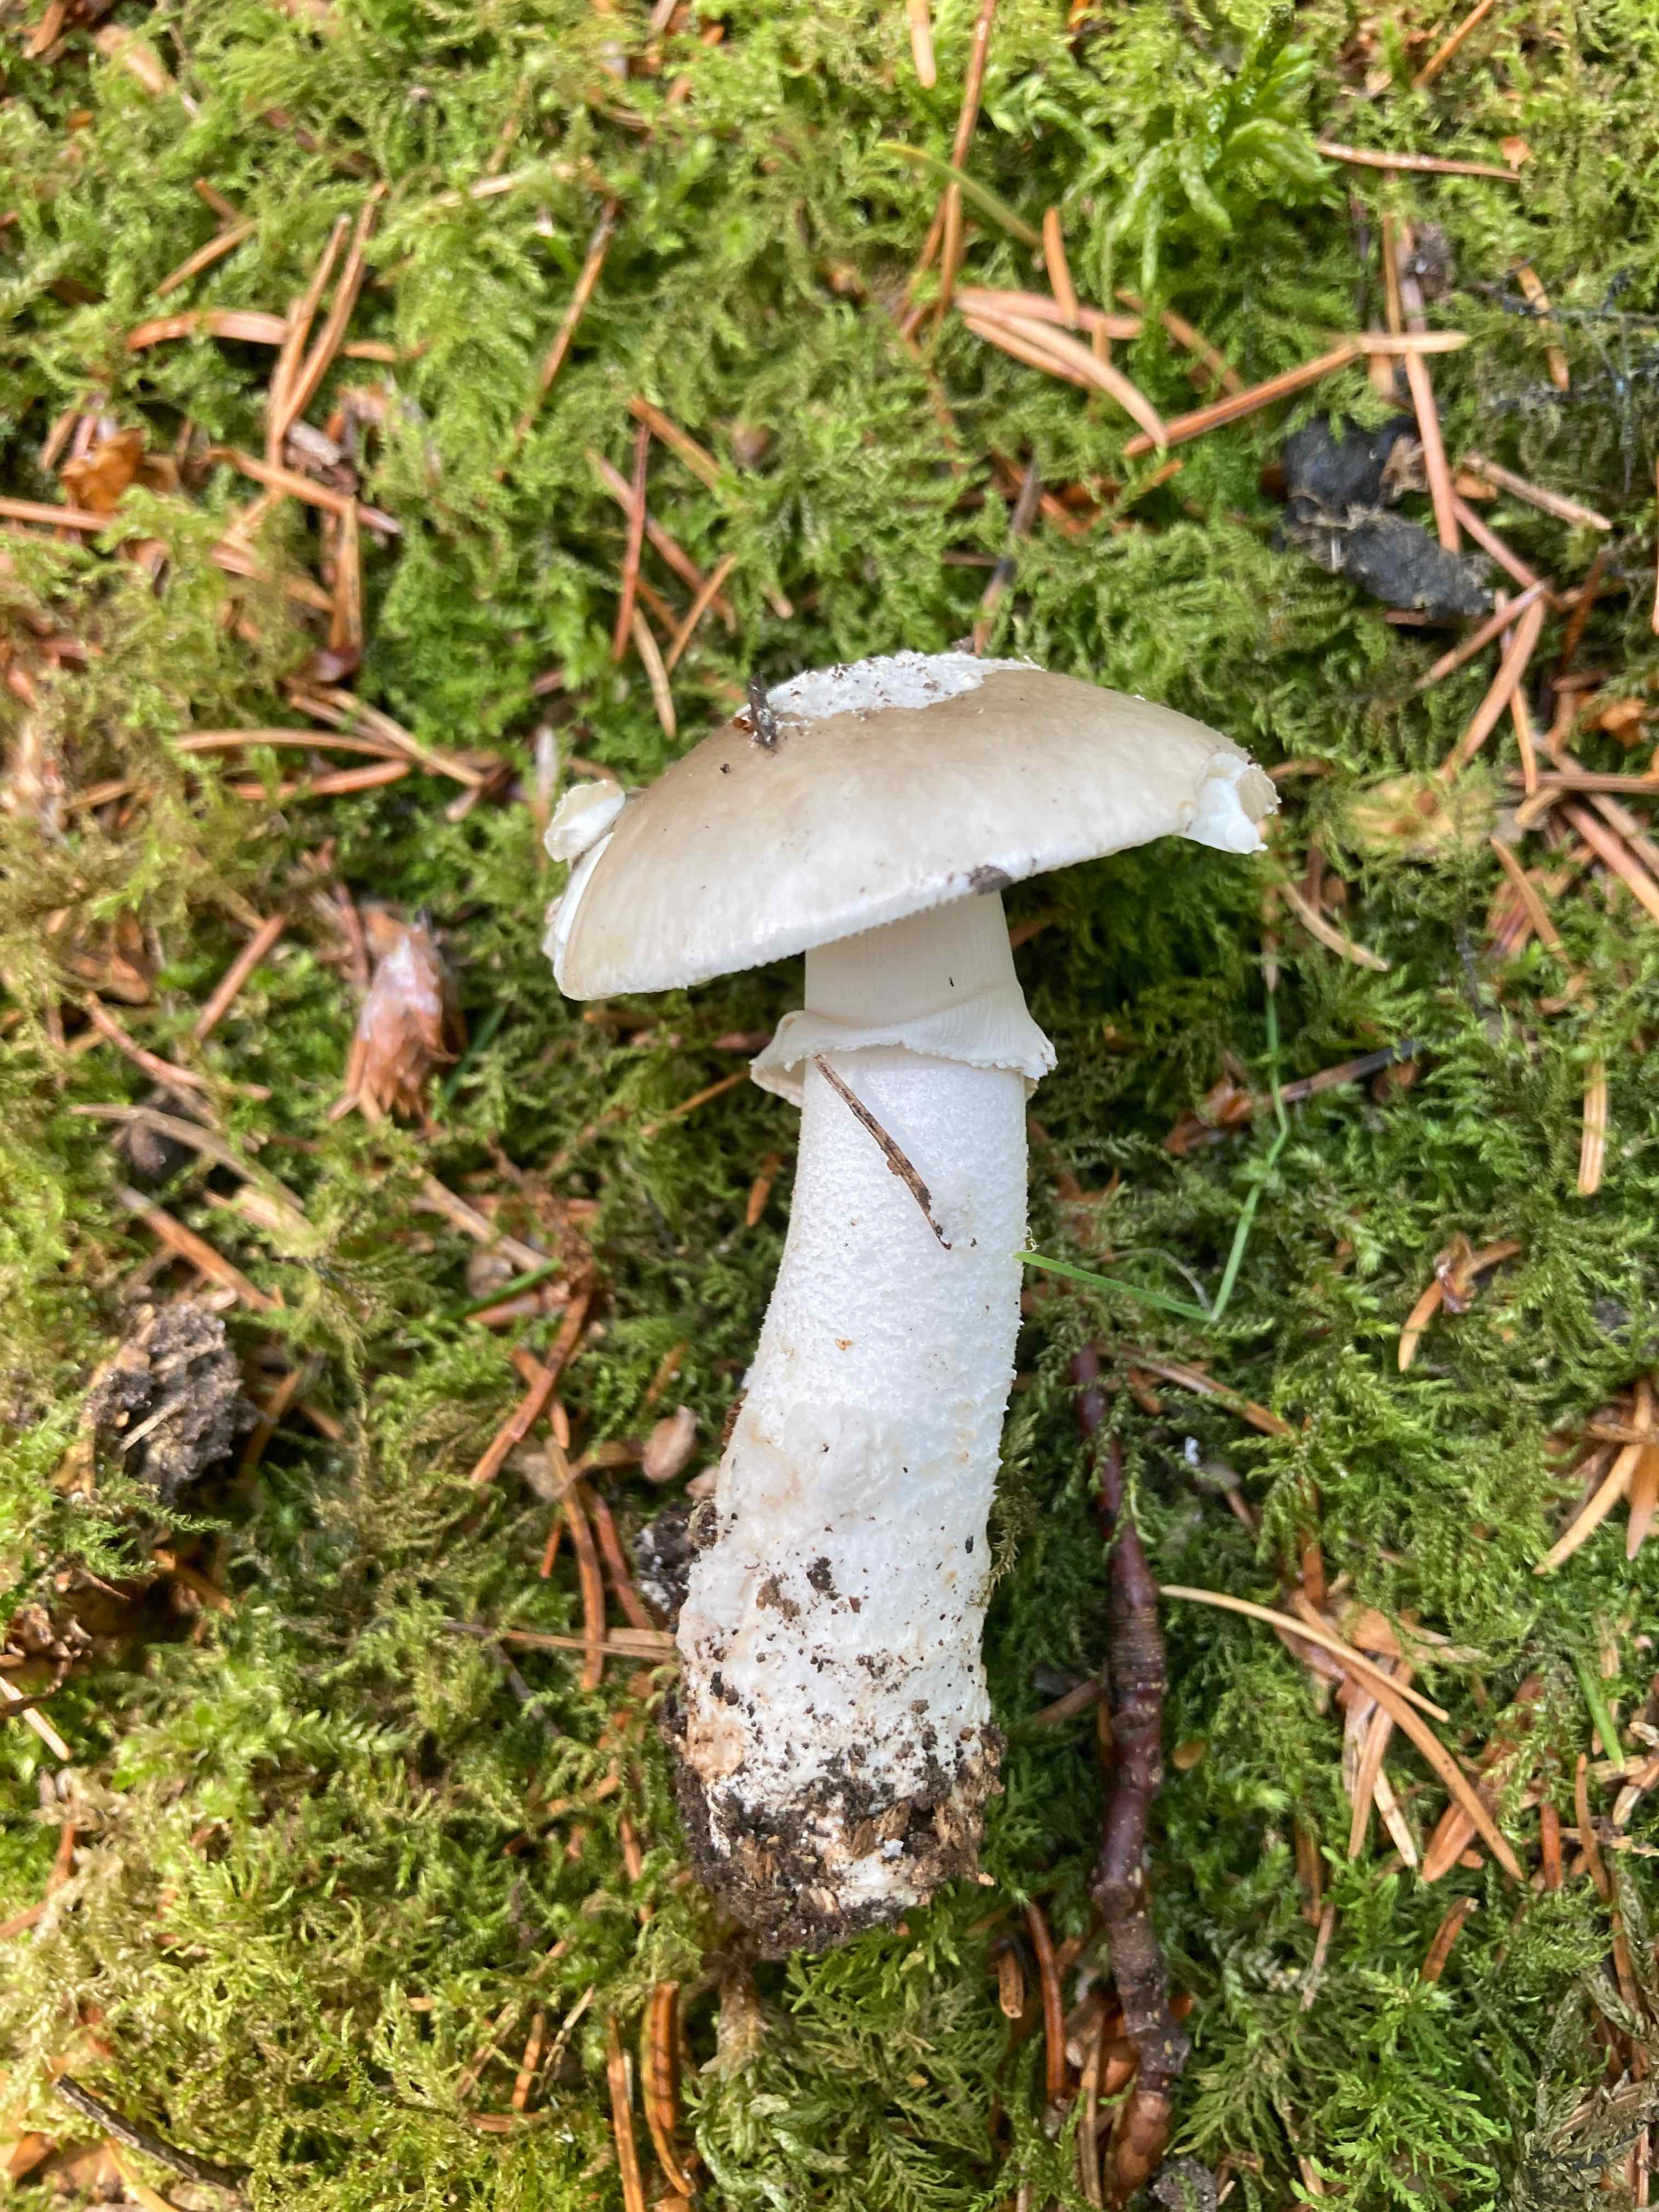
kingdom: Fungi
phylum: Basidiomycota
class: Agaricomycetes
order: Agaricales
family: Amanitaceae
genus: Amanita
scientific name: Amanita
